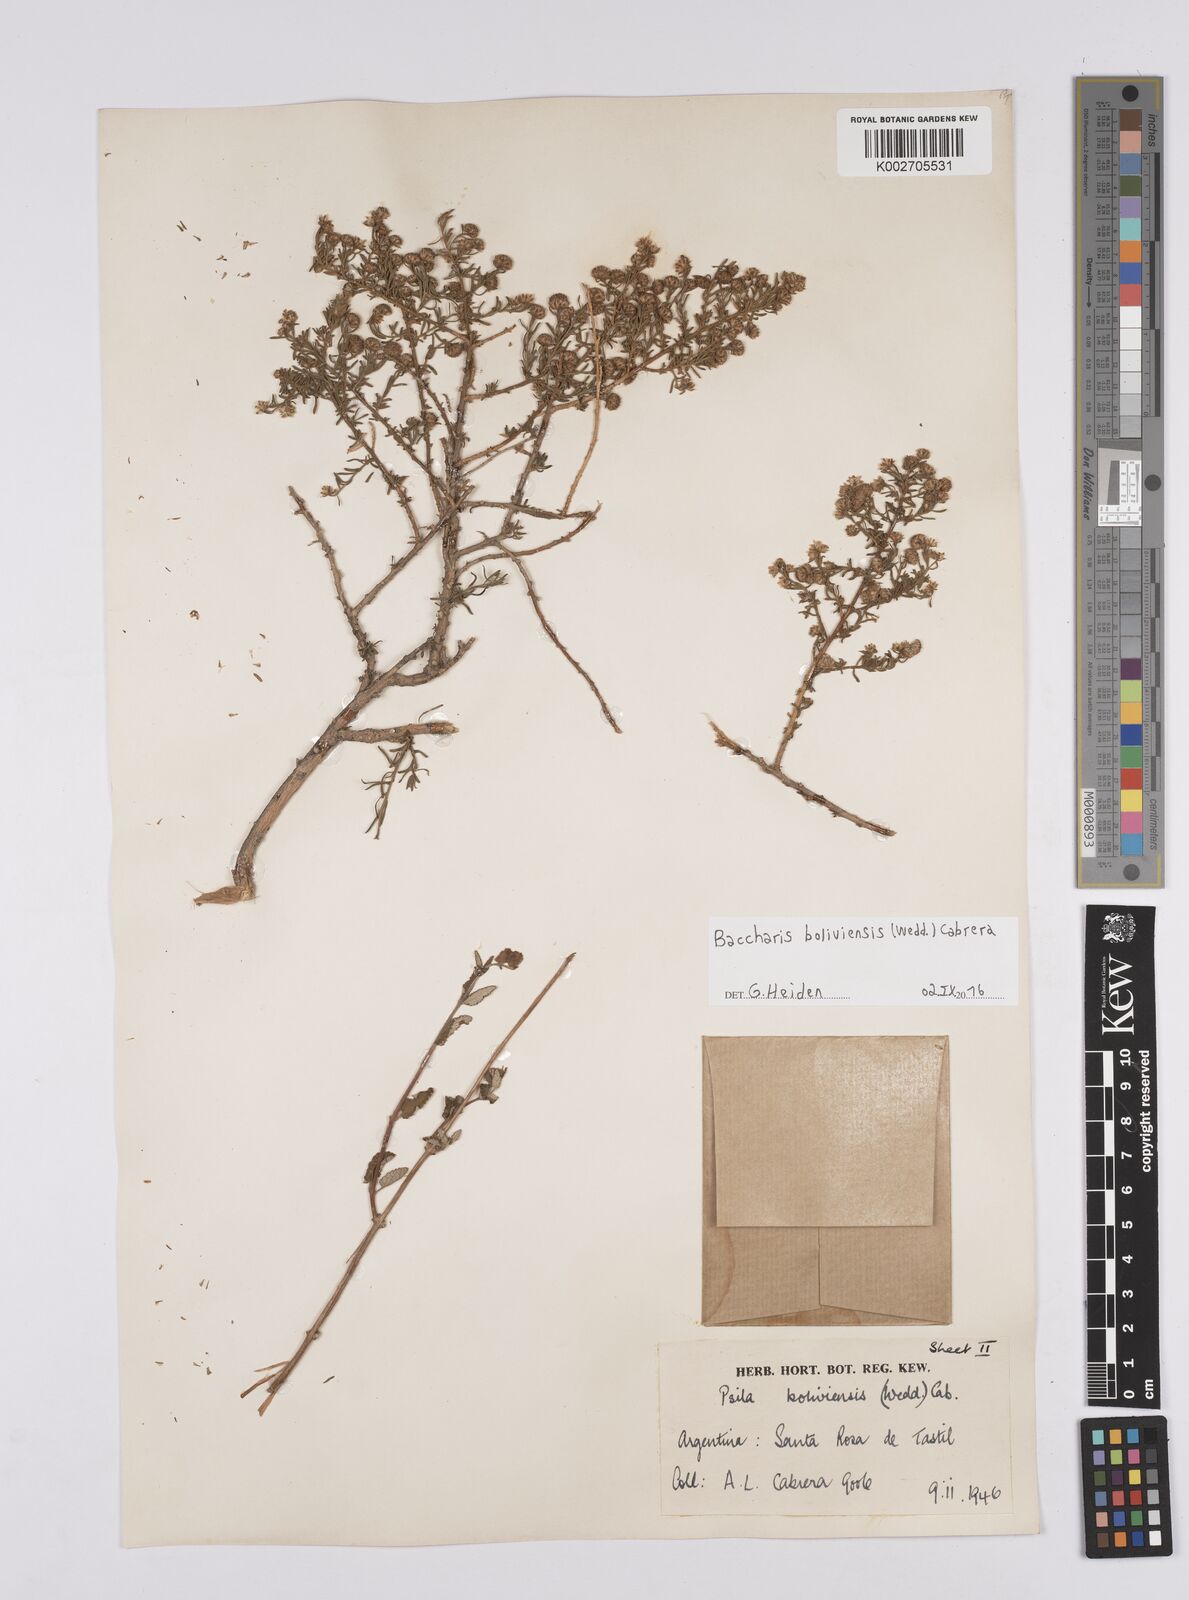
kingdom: Plantae
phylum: Tracheophyta
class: Magnoliopsida
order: Asterales
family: Asteraceae
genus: Baccharis
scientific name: Baccharis bolivensis
